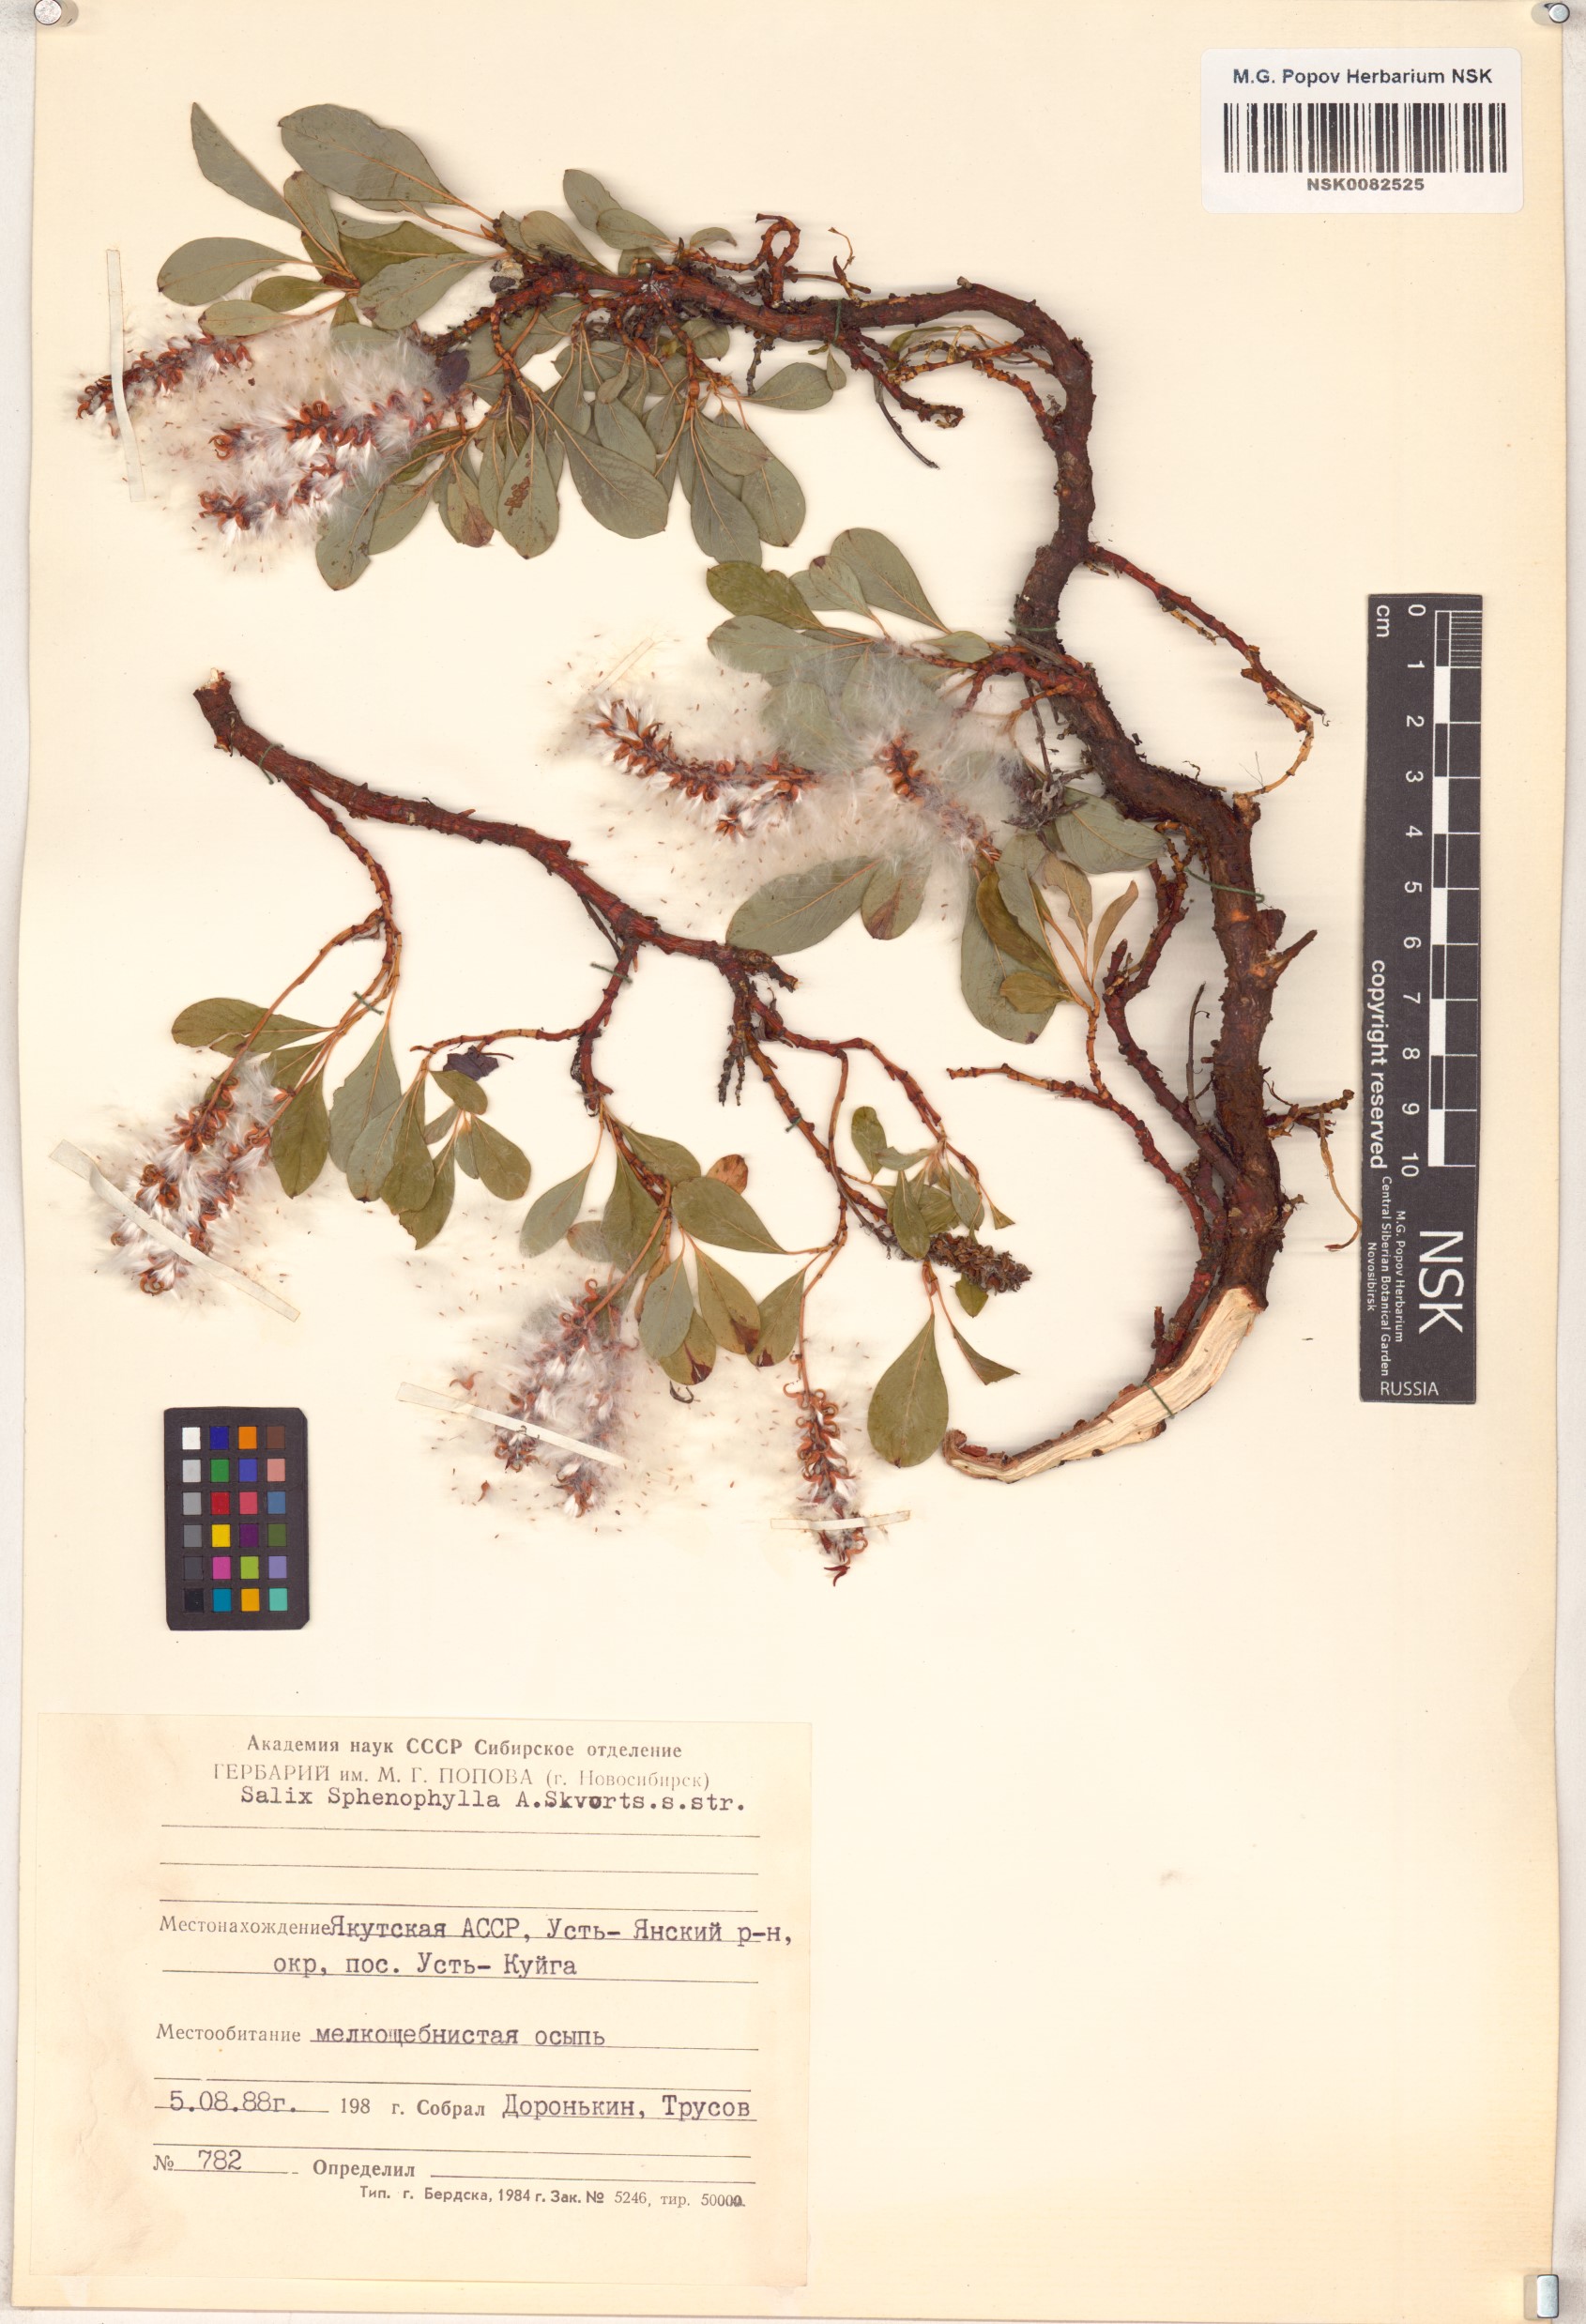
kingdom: Plantae
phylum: Tracheophyta
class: Magnoliopsida
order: Malpighiales
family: Salicaceae
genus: Salix
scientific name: Salix sphenophylla
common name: Wedge-leaved willow
